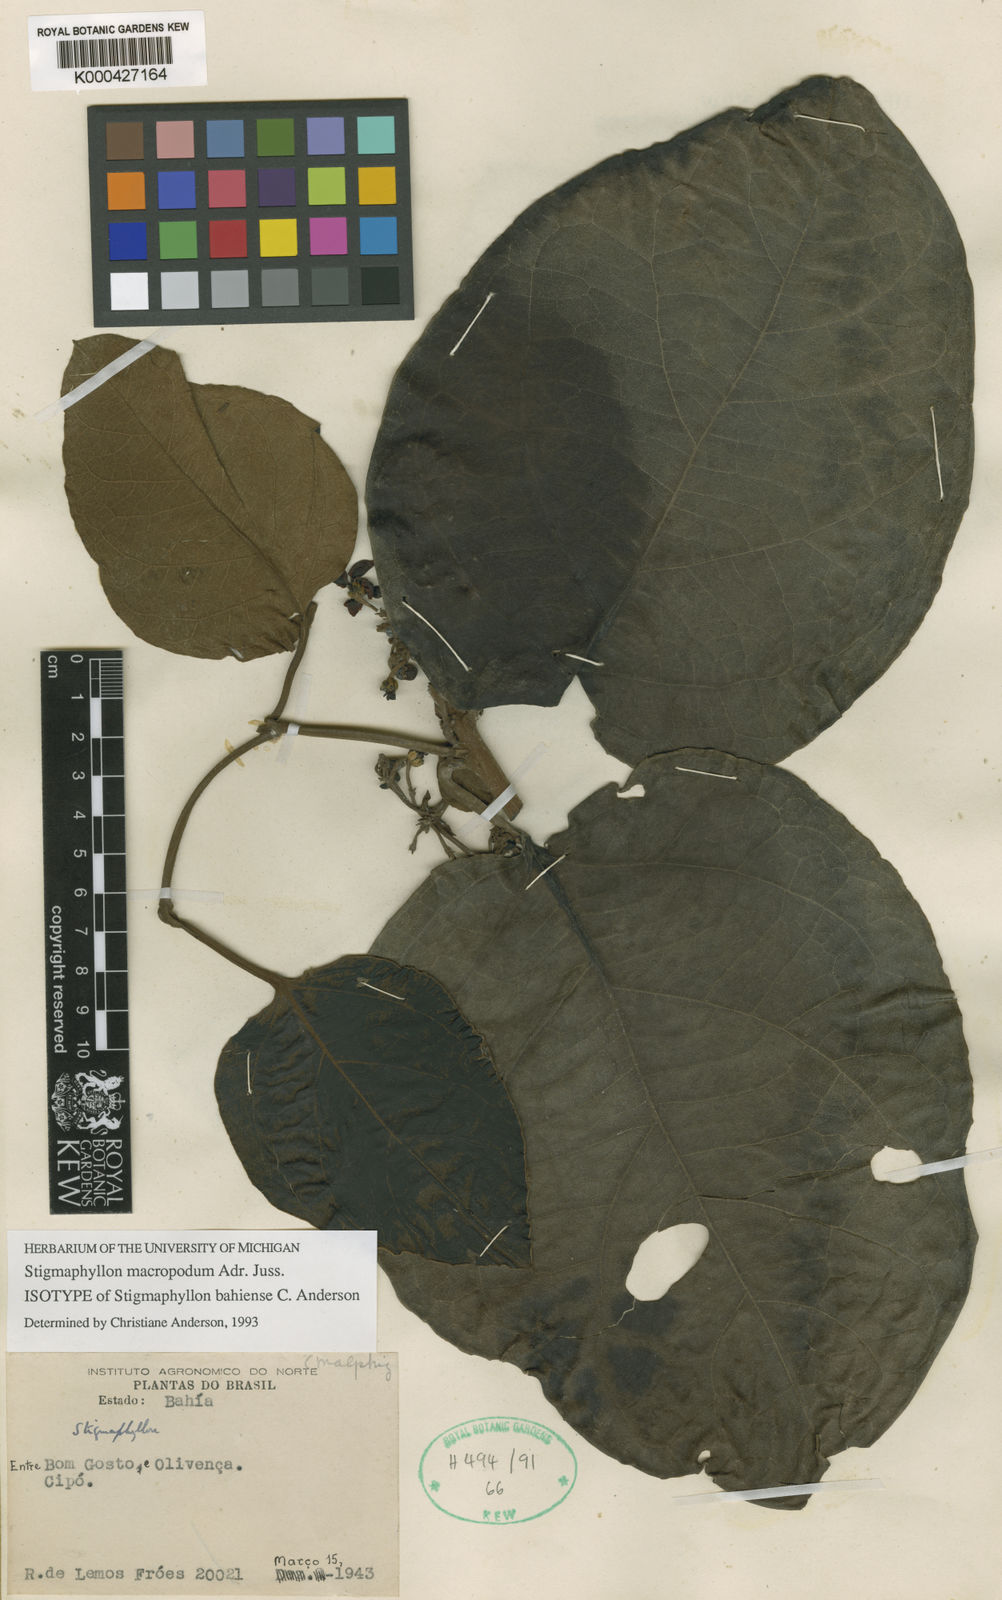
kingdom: Plantae
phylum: Tracheophyta
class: Magnoliopsida
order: Malpighiales
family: Malpighiaceae
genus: Stigmaphyllon
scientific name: Stigmaphyllon macropodum
